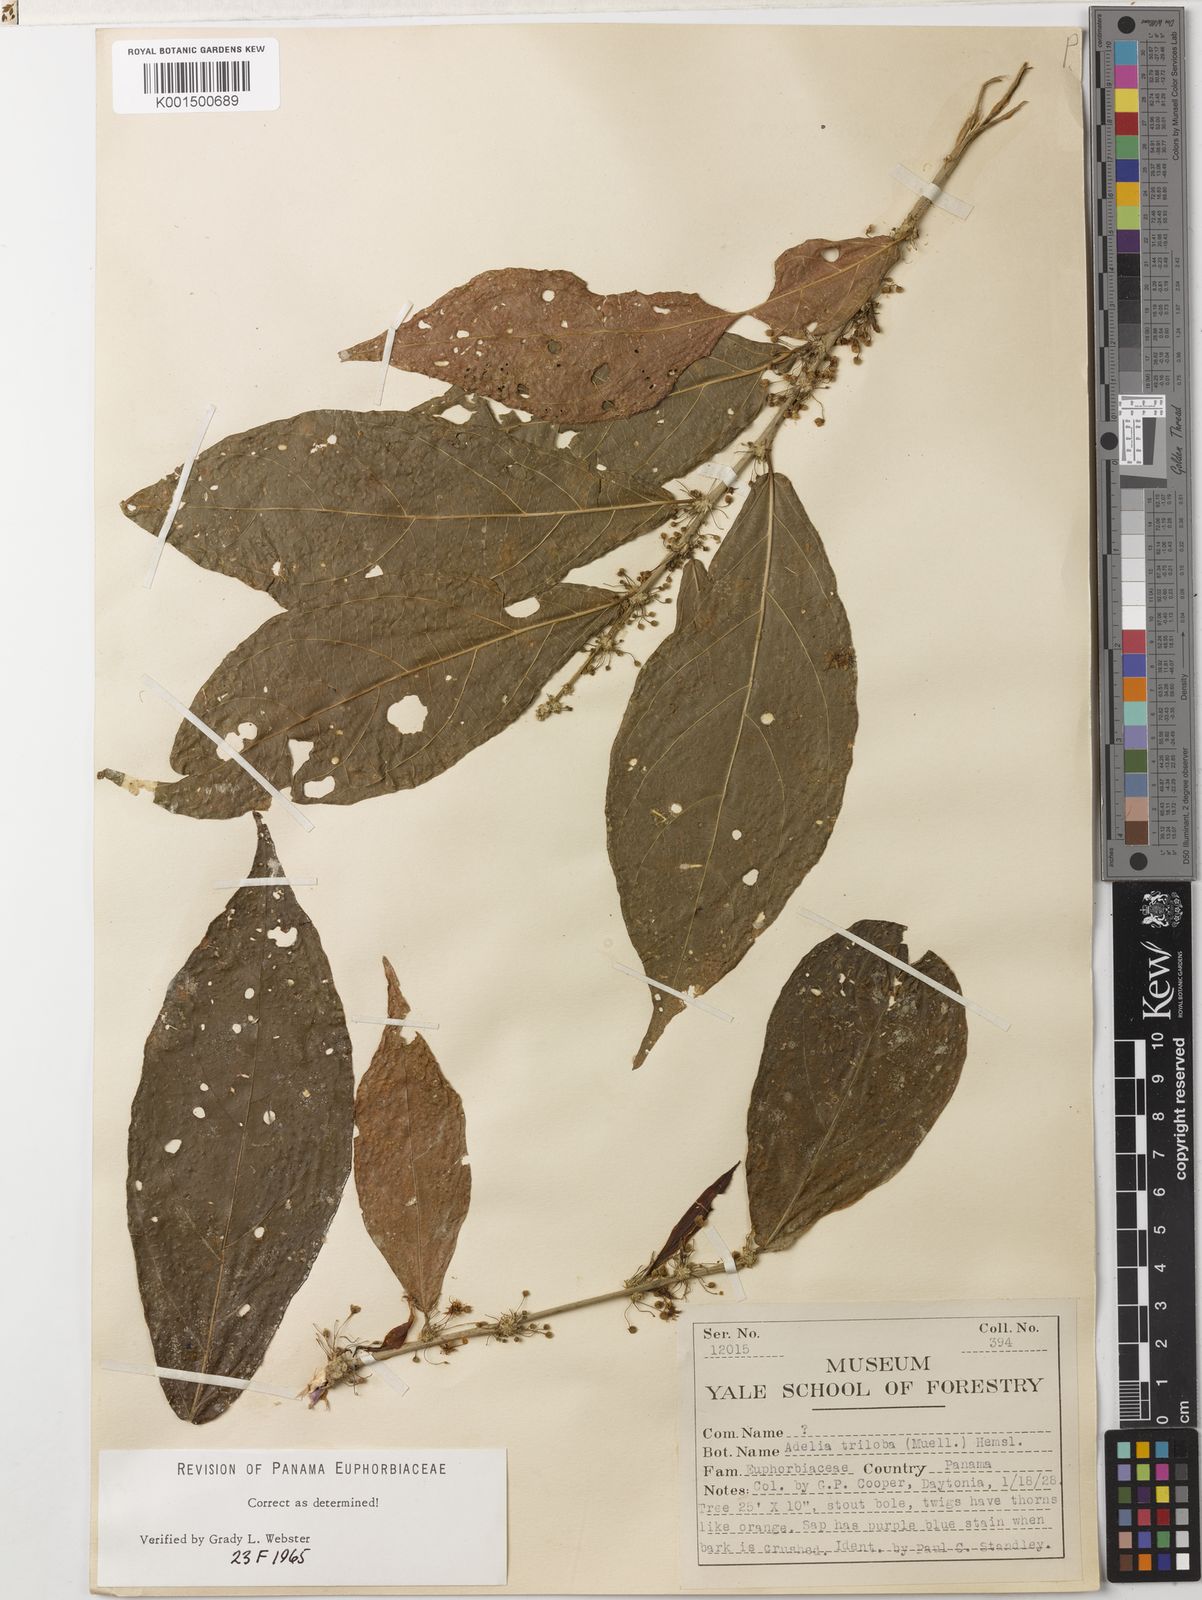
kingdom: Plantae
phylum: Tracheophyta
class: Magnoliopsida
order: Malpighiales
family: Euphorbiaceae
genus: Adelia
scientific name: Adelia triloba
